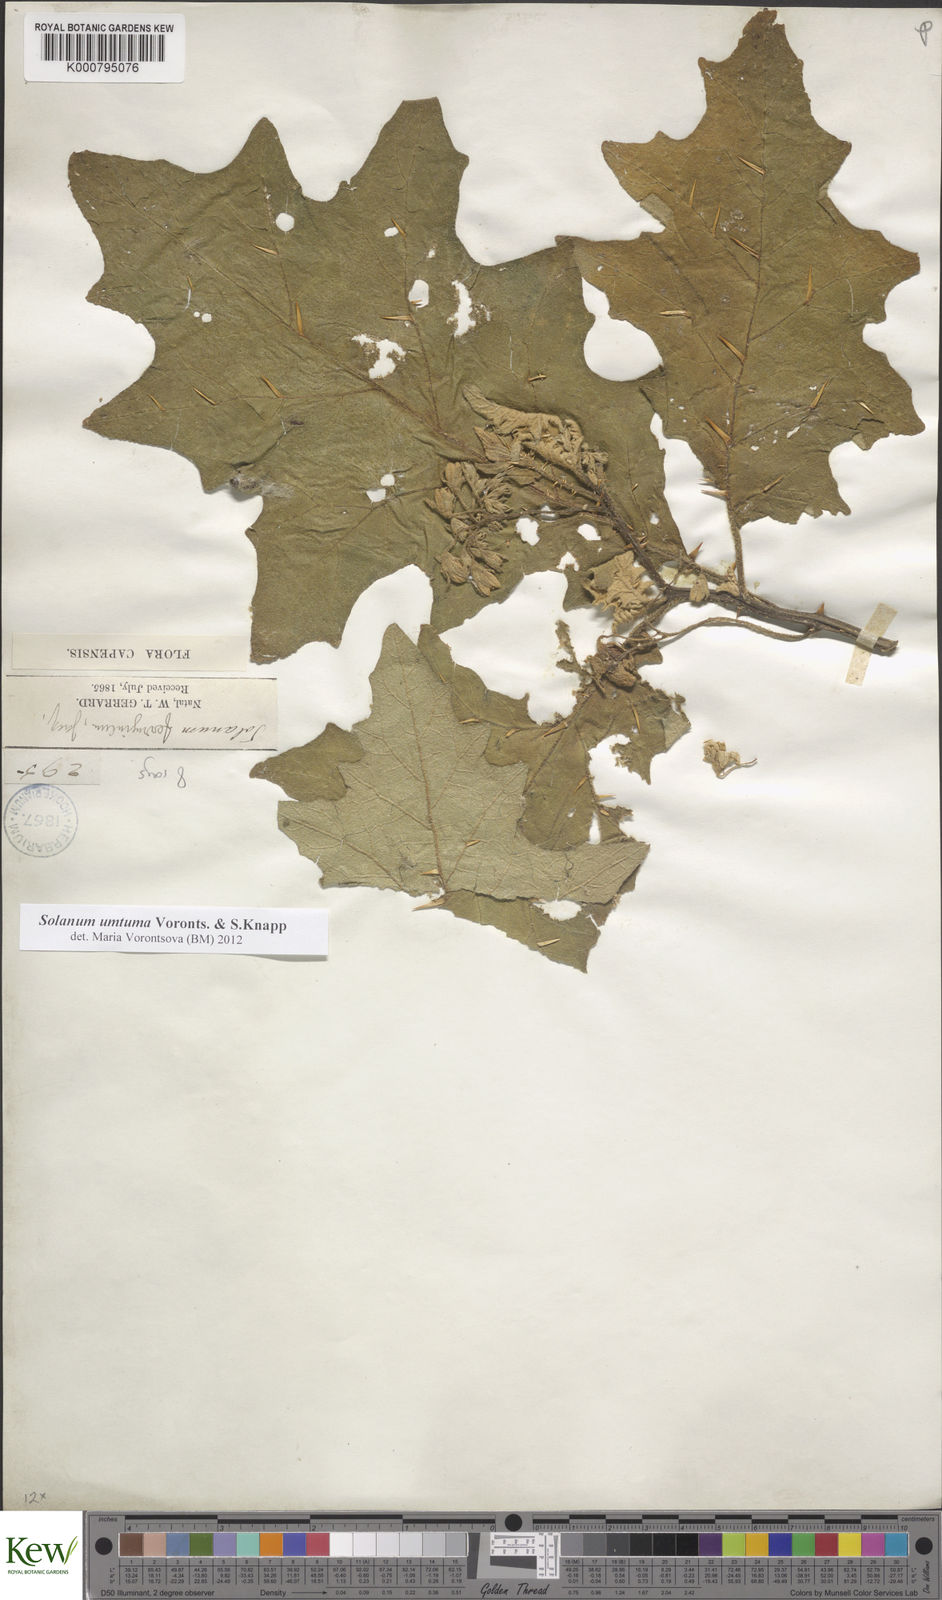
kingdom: Plantae
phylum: Tracheophyta
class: Magnoliopsida
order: Solanales
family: Solanaceae
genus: Solanum
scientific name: Solanum umtuma
